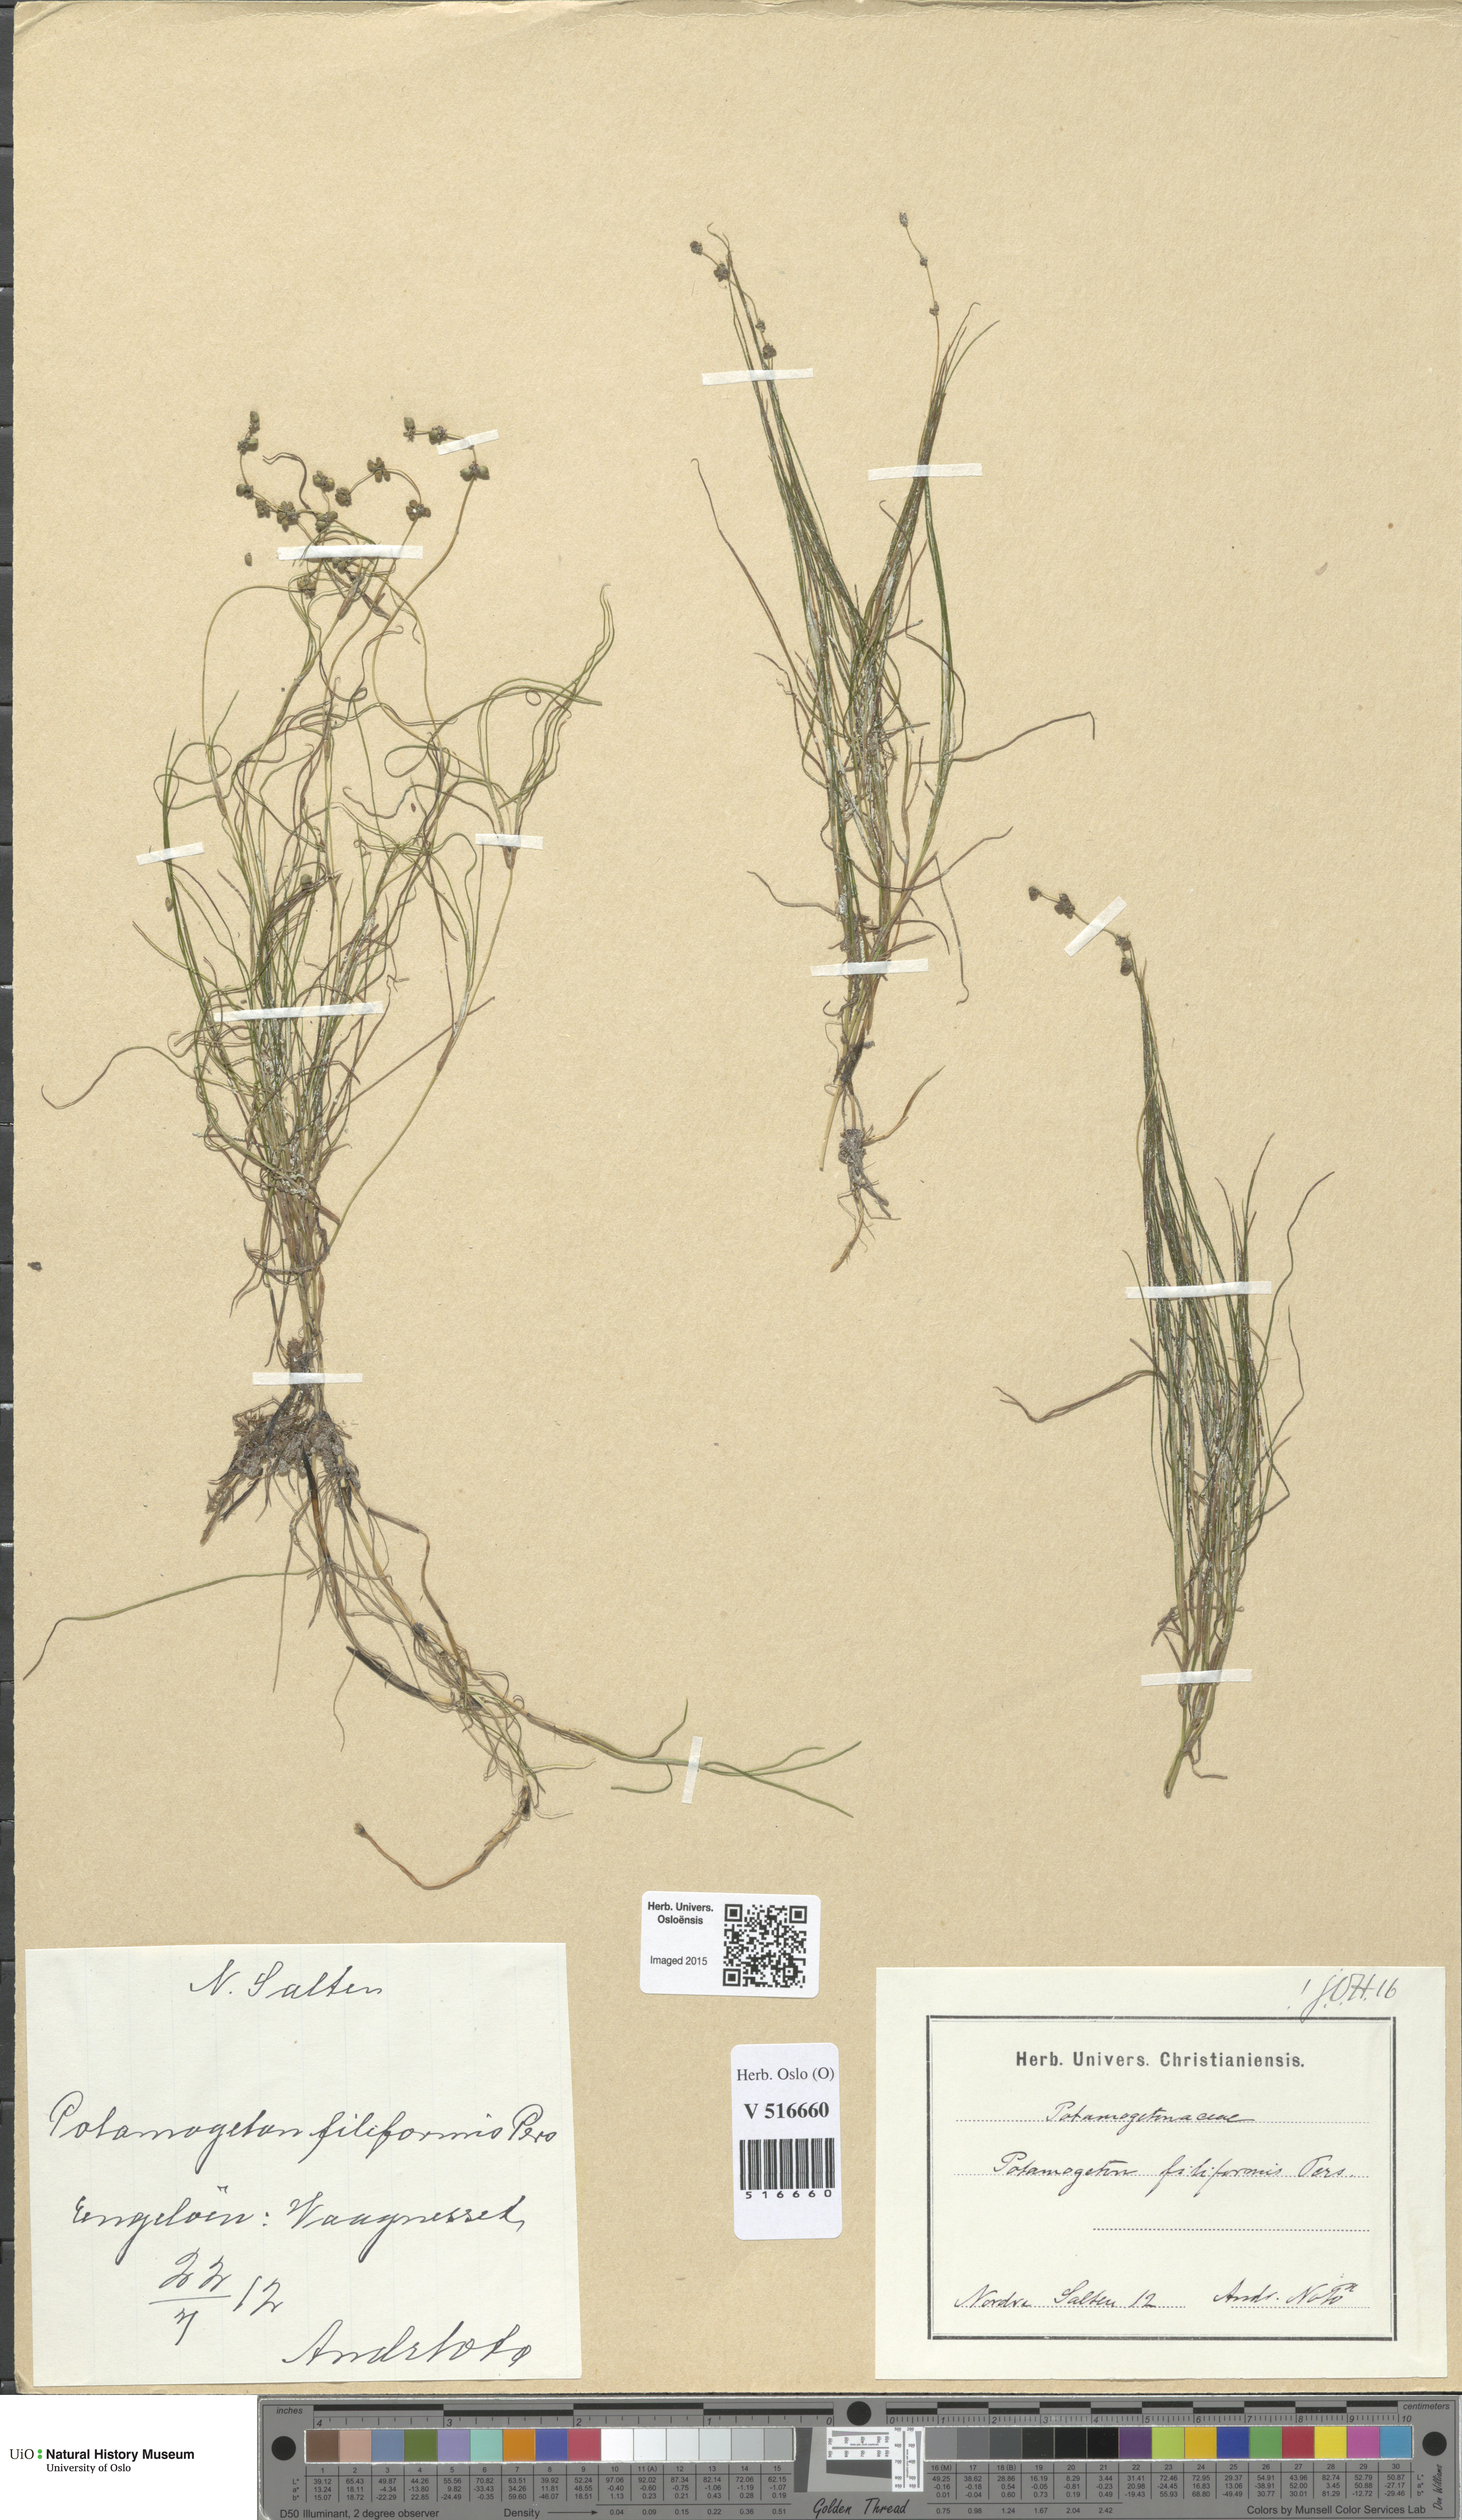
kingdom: Plantae
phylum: Tracheophyta
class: Liliopsida
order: Alismatales
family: Potamogetonaceae
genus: Stuckenia
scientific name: Stuckenia filiformis
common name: Alpine thread-leaved pondweed
